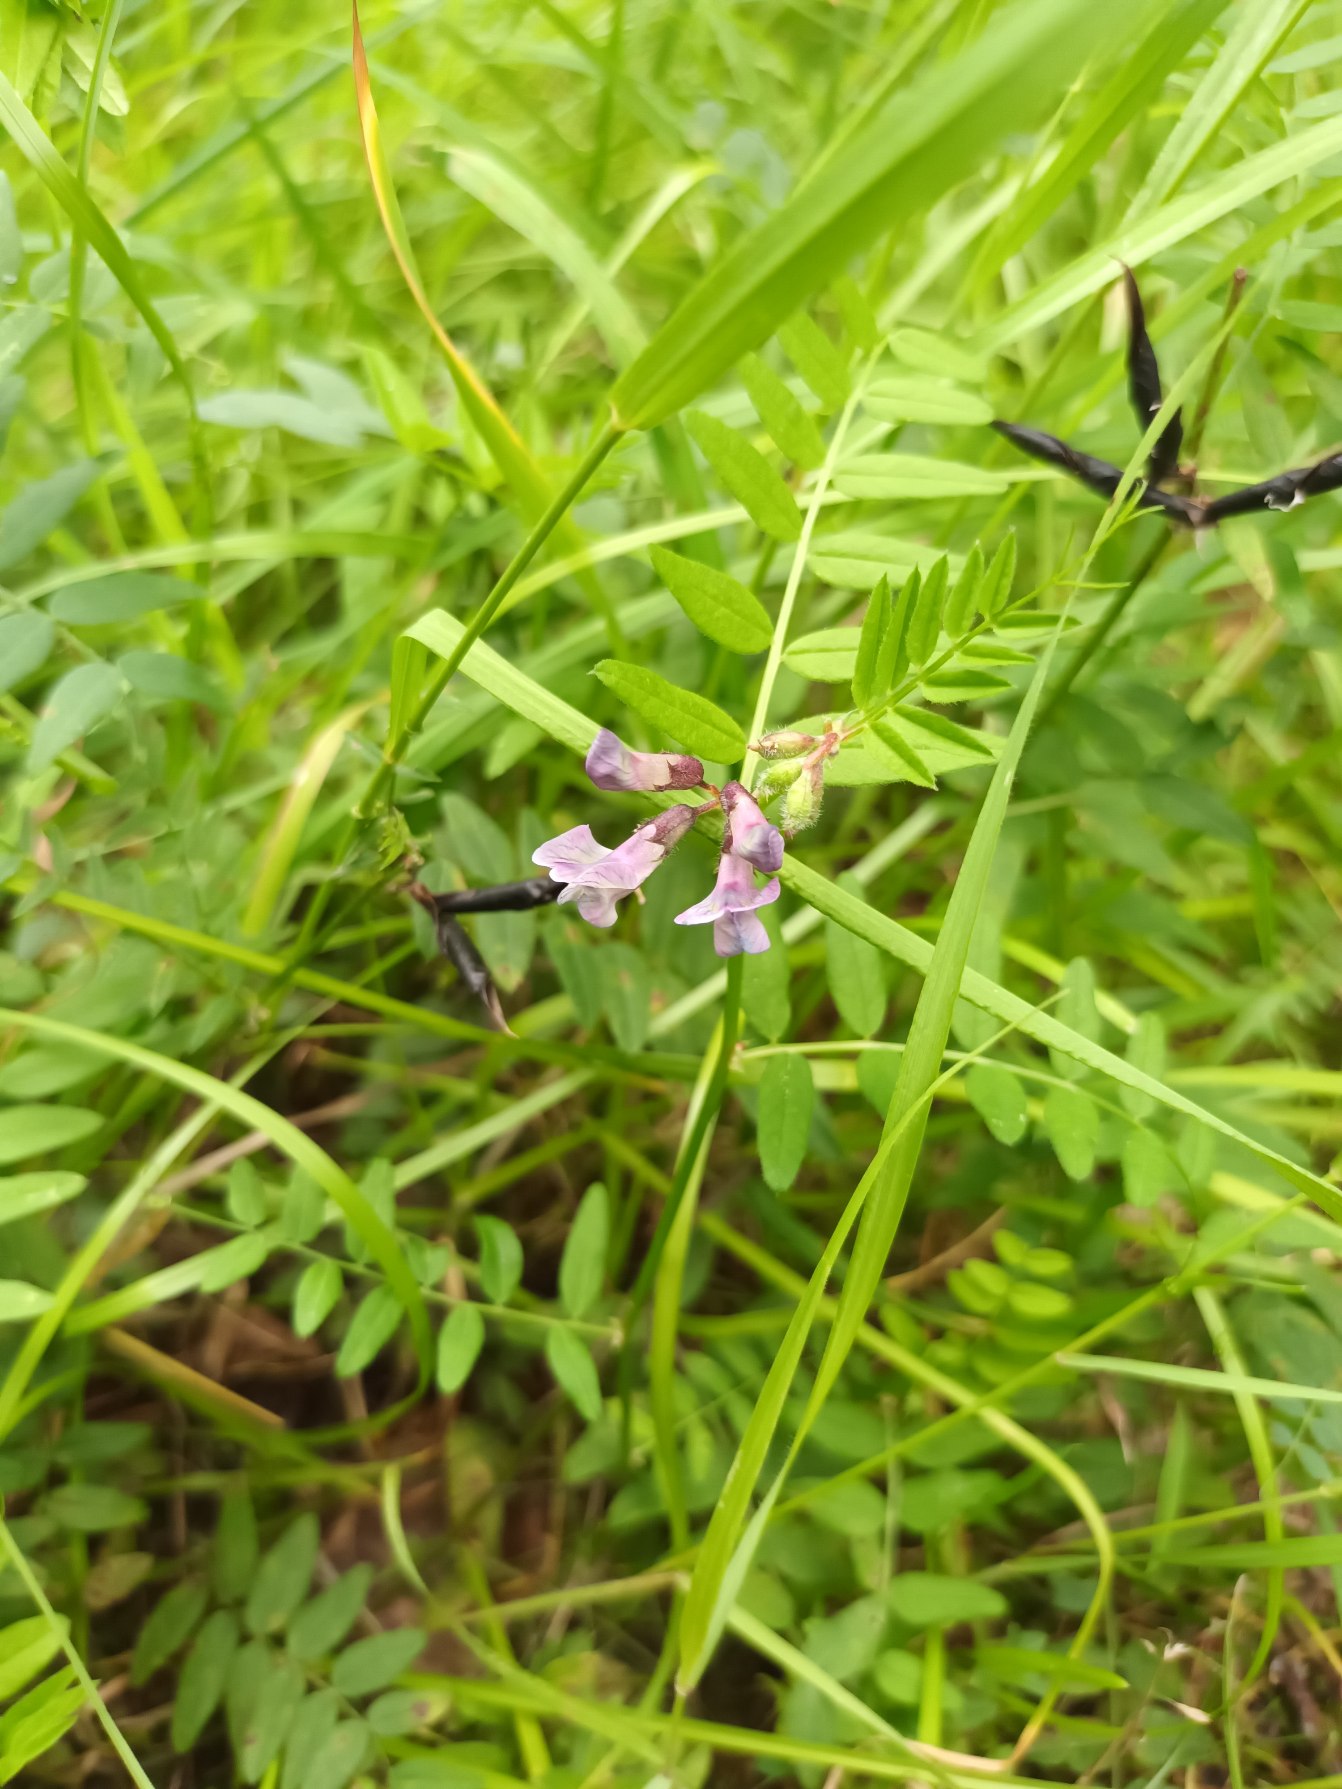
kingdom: Plantae
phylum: Tracheophyta
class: Magnoliopsida
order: Fabales
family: Fabaceae
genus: Vicia
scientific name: Vicia sepium
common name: Gærde-vikke
